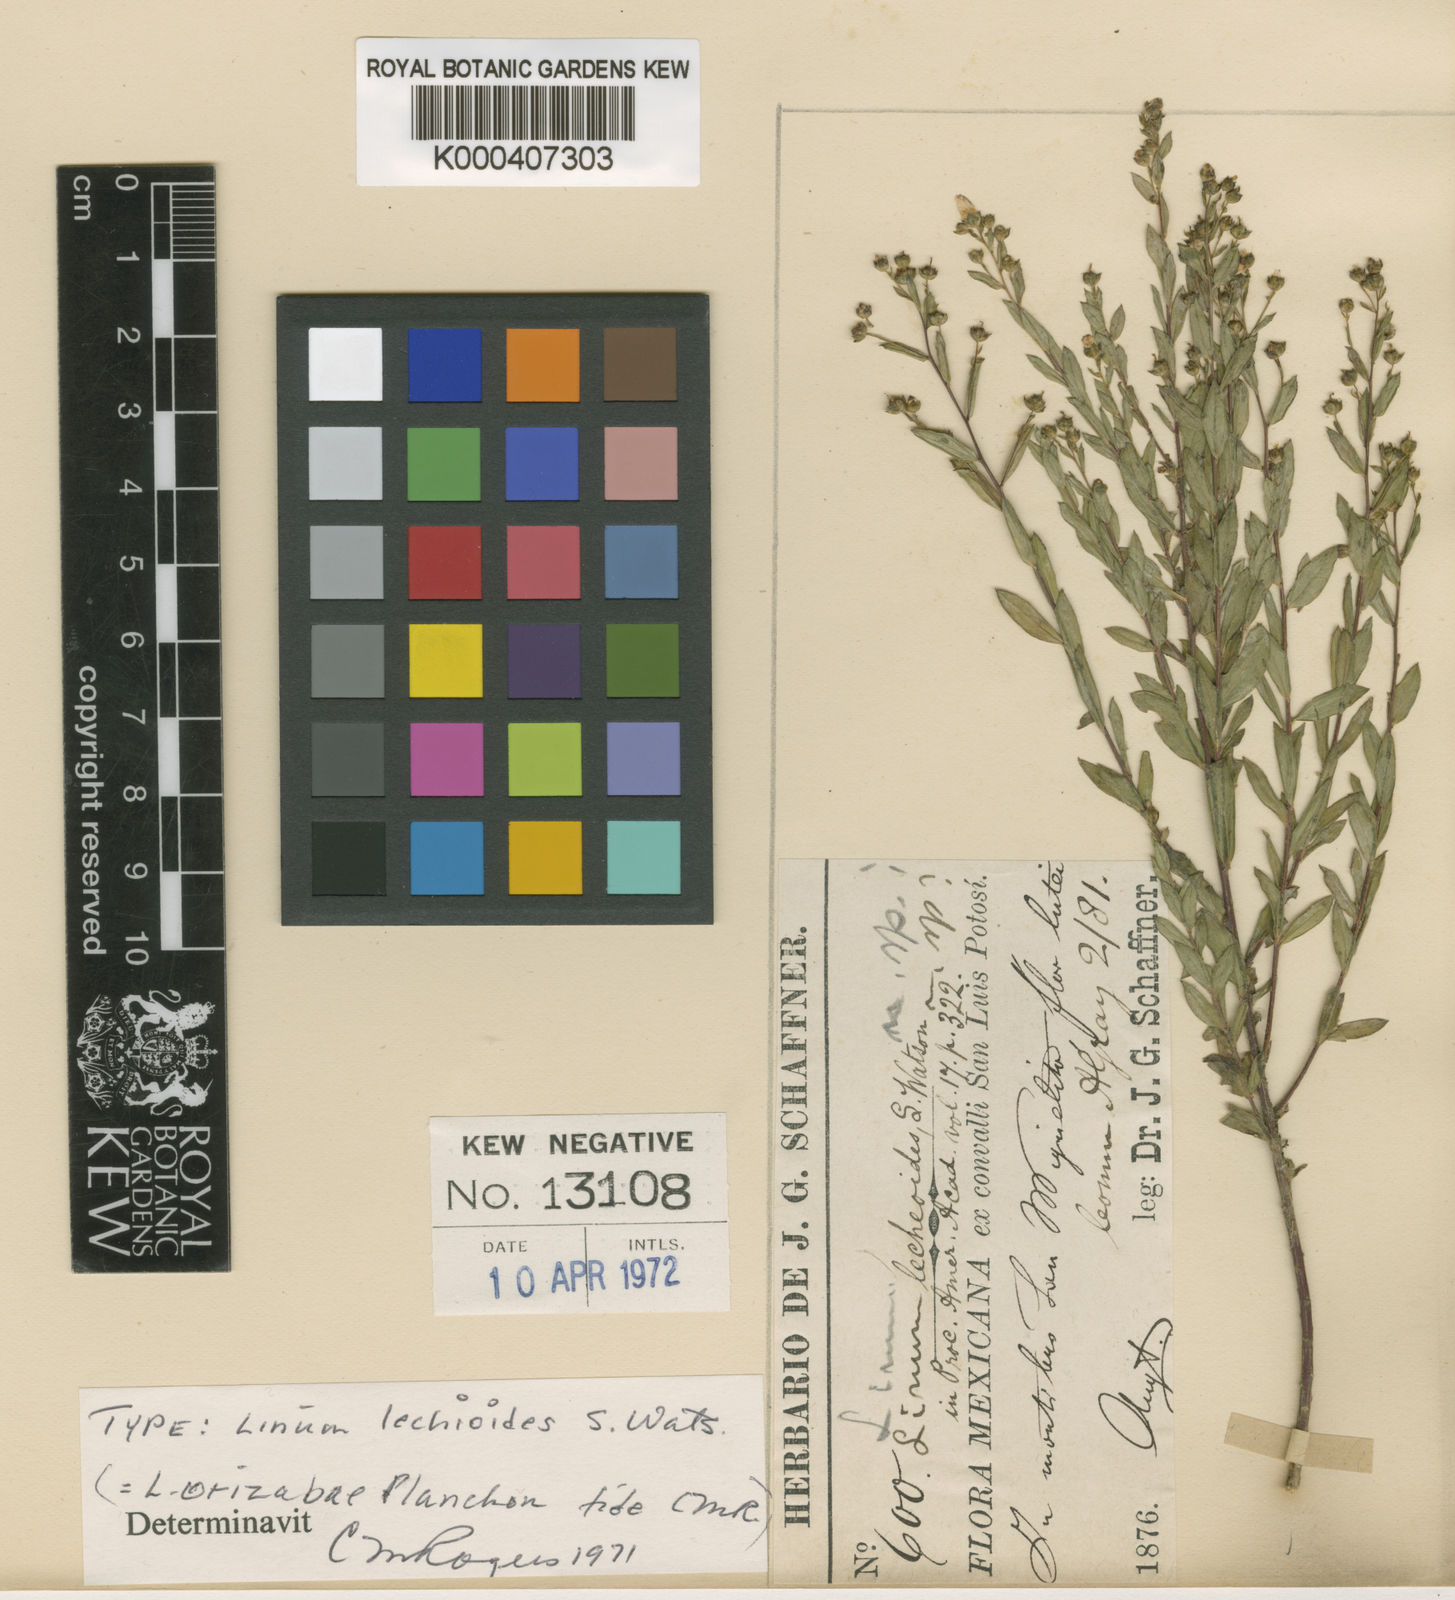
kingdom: Plantae
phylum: Tracheophyta
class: Magnoliopsida
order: Malpighiales
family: Linaceae
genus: Linum
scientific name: Linum orizabae
